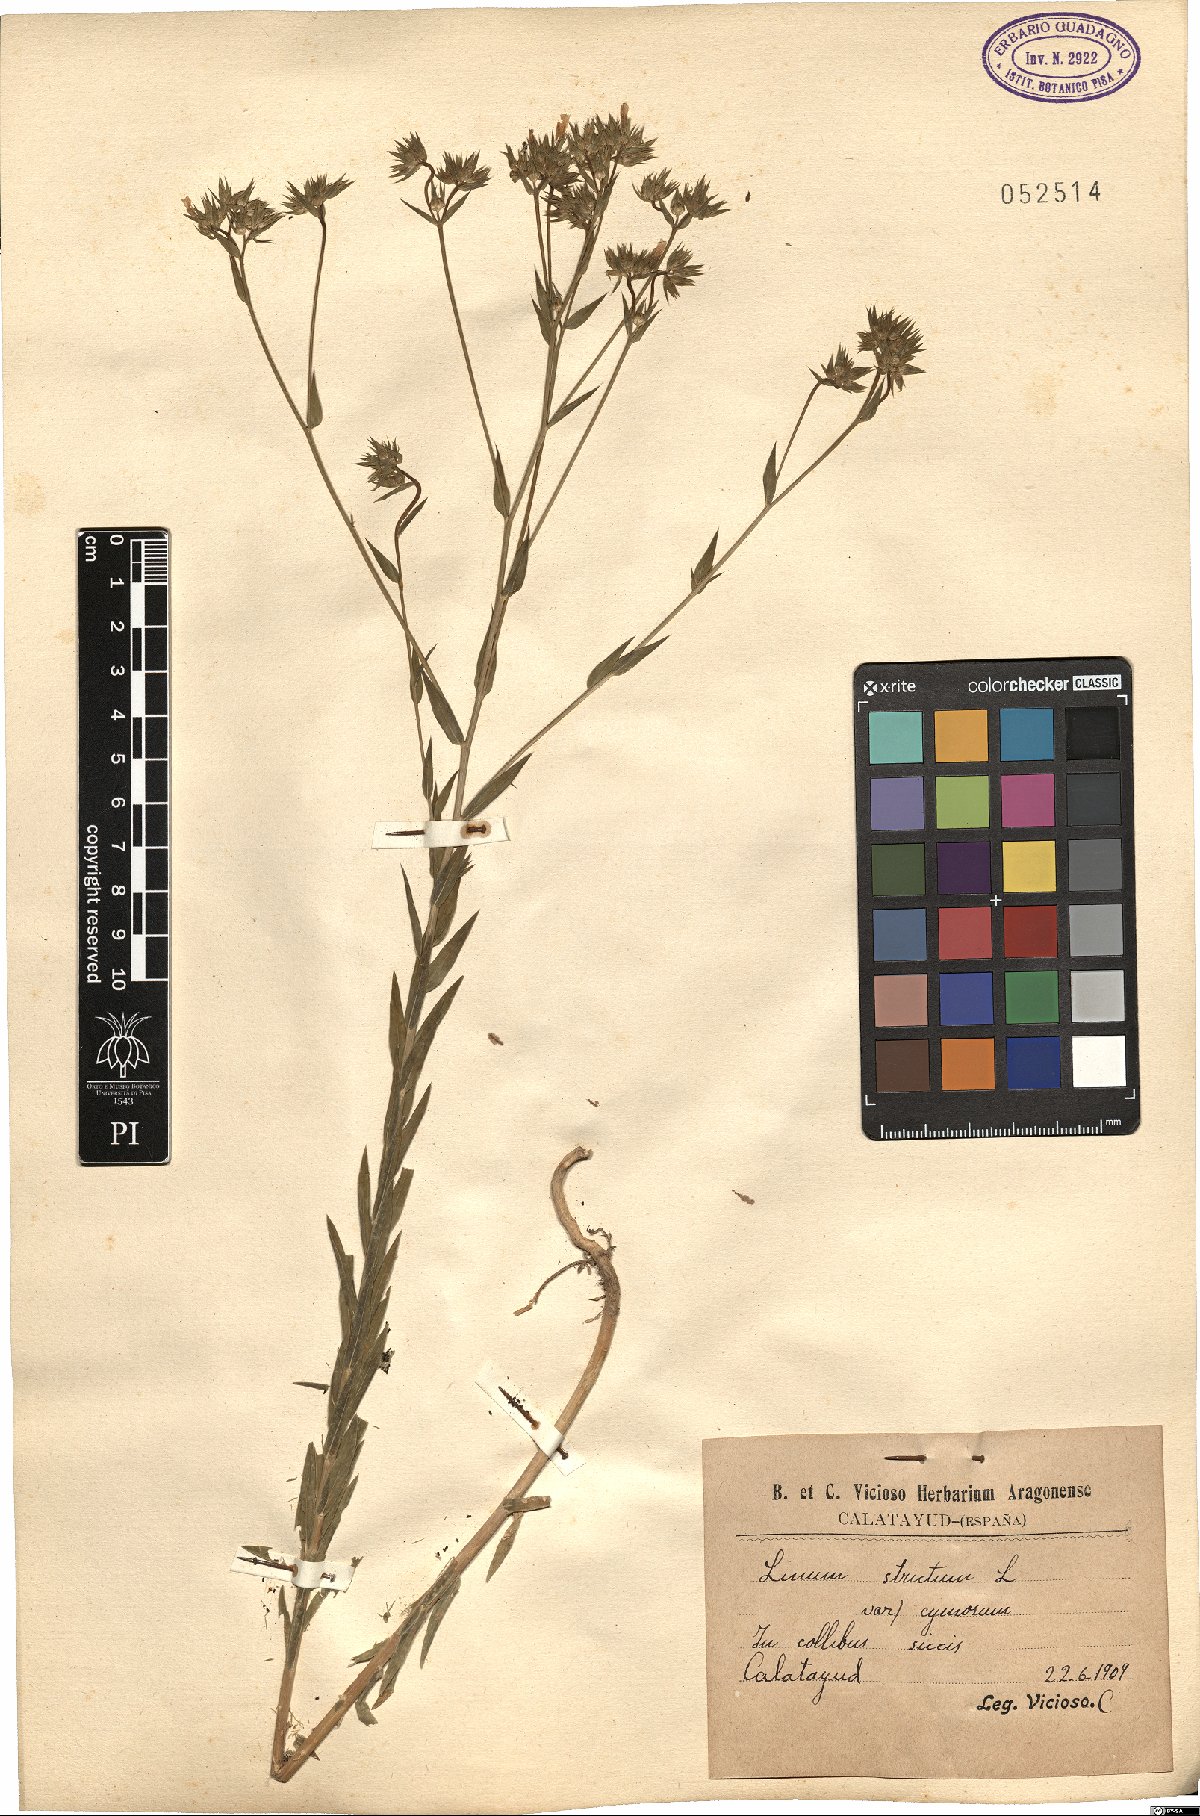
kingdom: Plantae
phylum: Tracheophyta
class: Magnoliopsida
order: Malpighiales
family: Linaceae
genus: Linum
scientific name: Linum strictum
